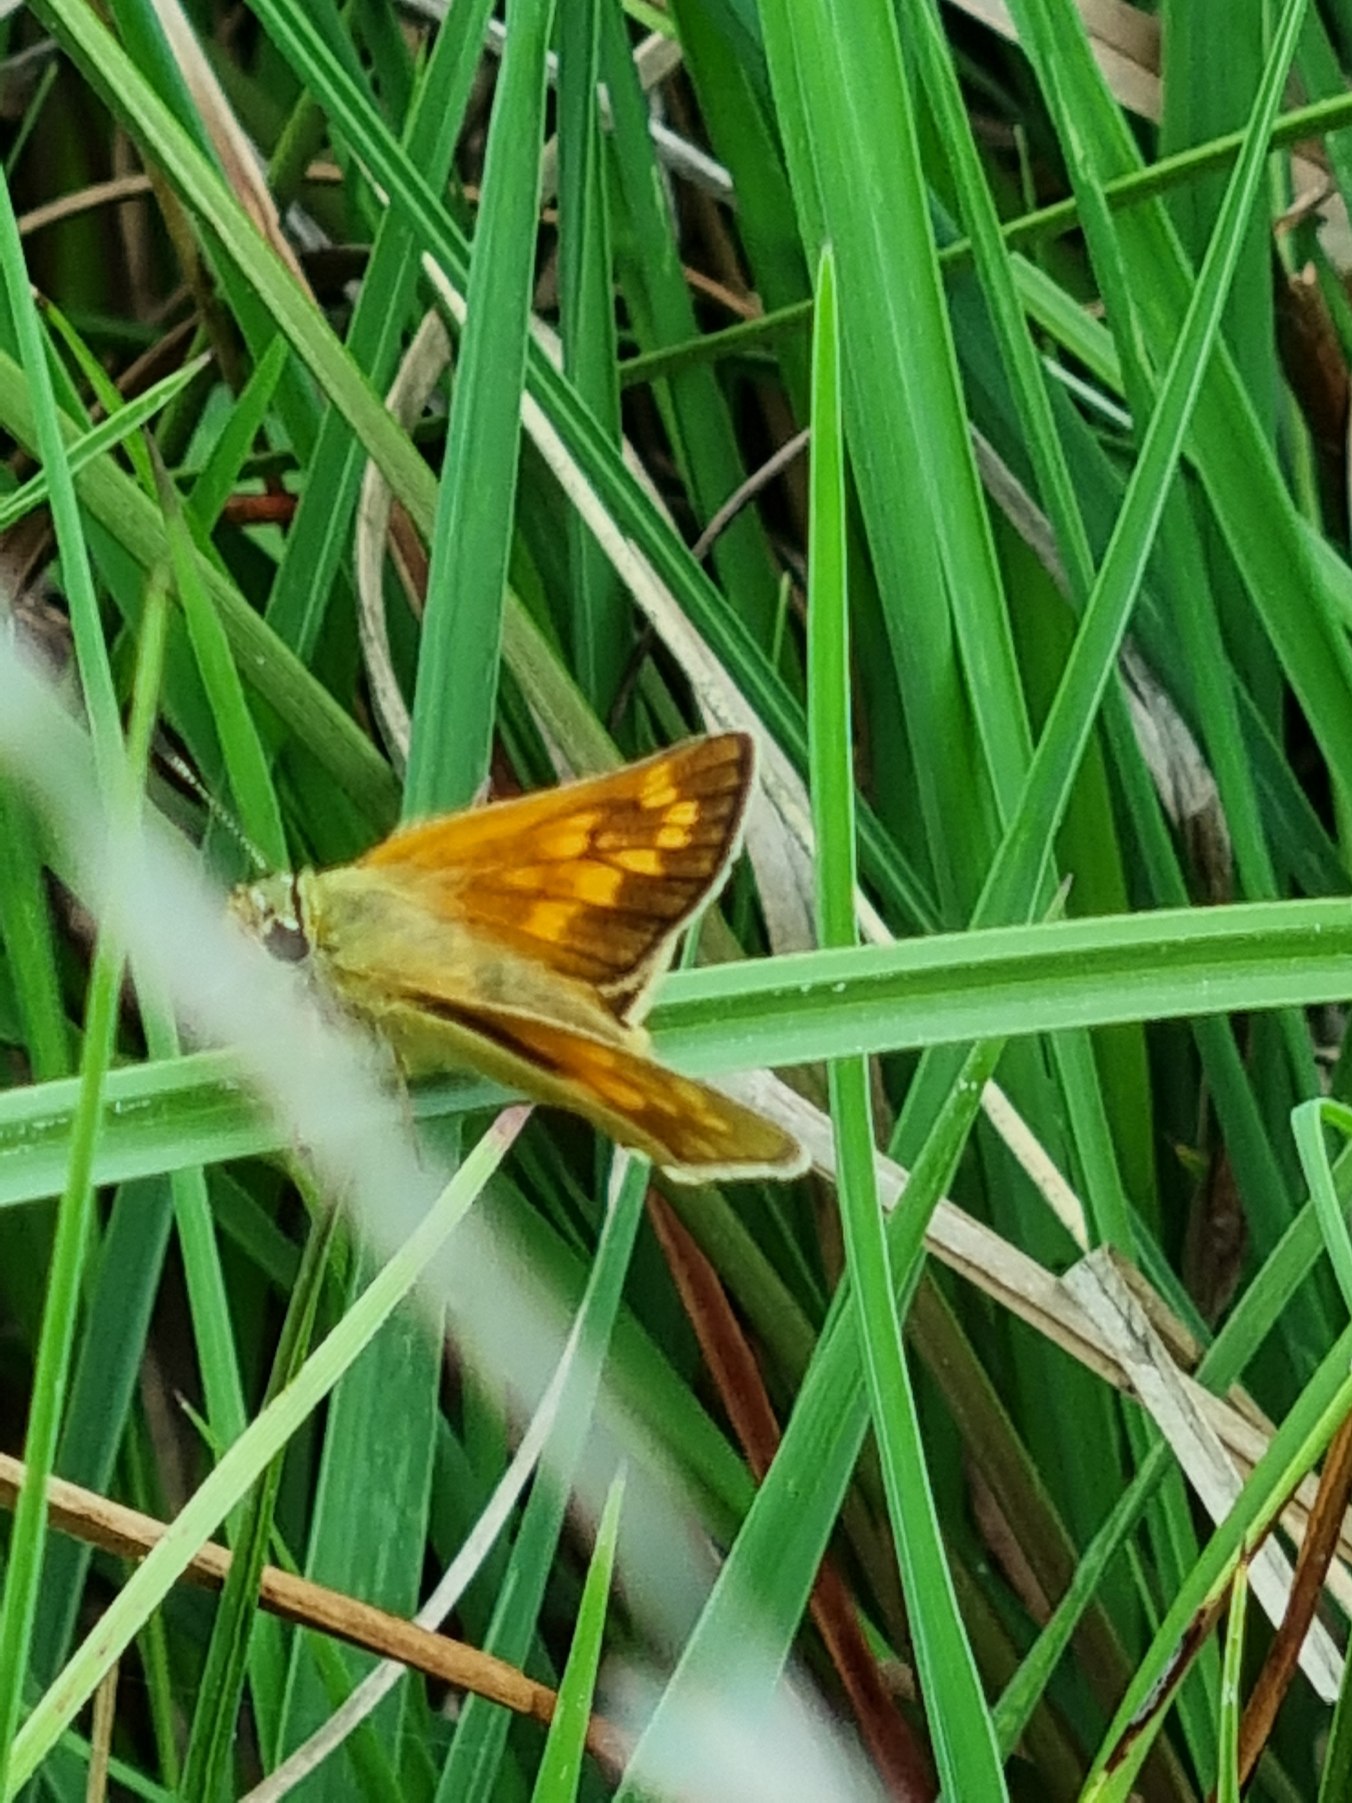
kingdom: Animalia
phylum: Arthropoda
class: Insecta
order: Lepidoptera
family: Hesperiidae
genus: Ochlodes
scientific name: Ochlodes venata
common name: Stor bredpande
